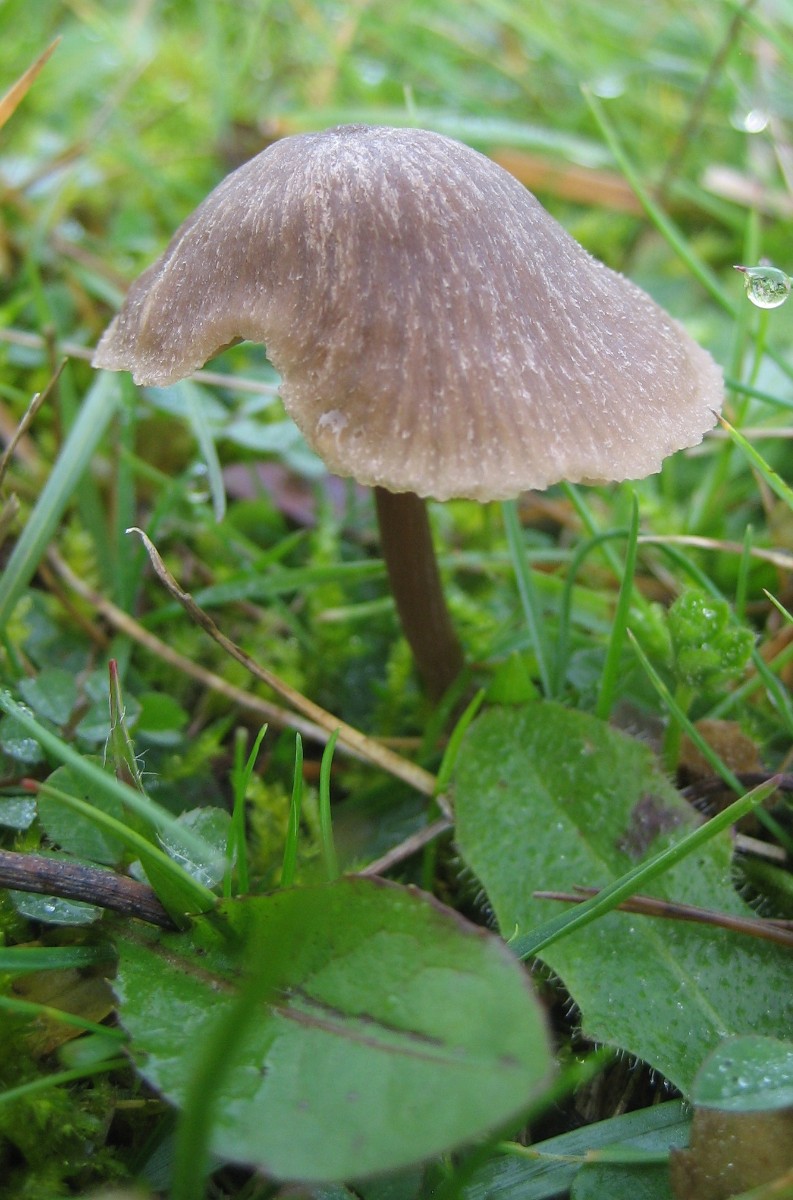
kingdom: Fungi
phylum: Basidiomycota
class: Agaricomycetes
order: Agaricales
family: Entolomataceae
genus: Entoloma
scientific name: Entoloma
